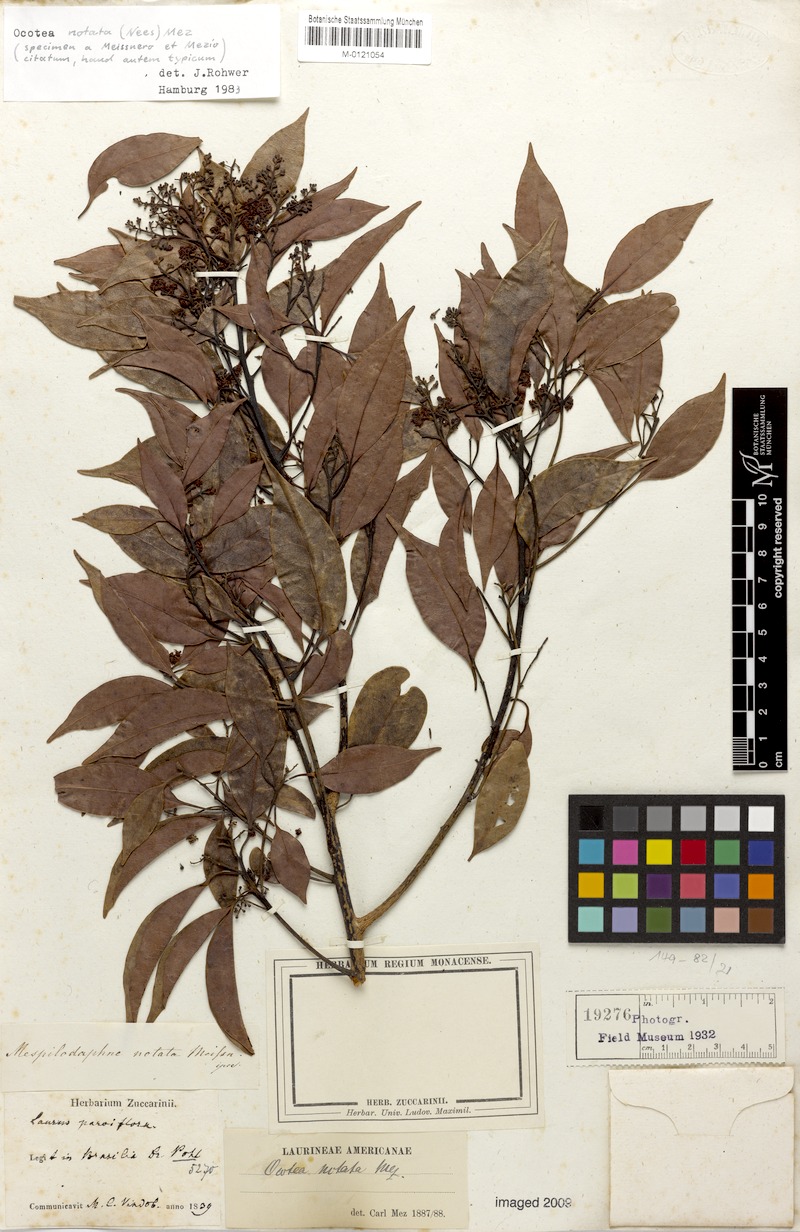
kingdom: Plantae
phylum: Tracheophyta
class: Magnoliopsida
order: Laurales
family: Lauraceae
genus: Mespilodaphne
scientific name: Mespilodaphne notata
